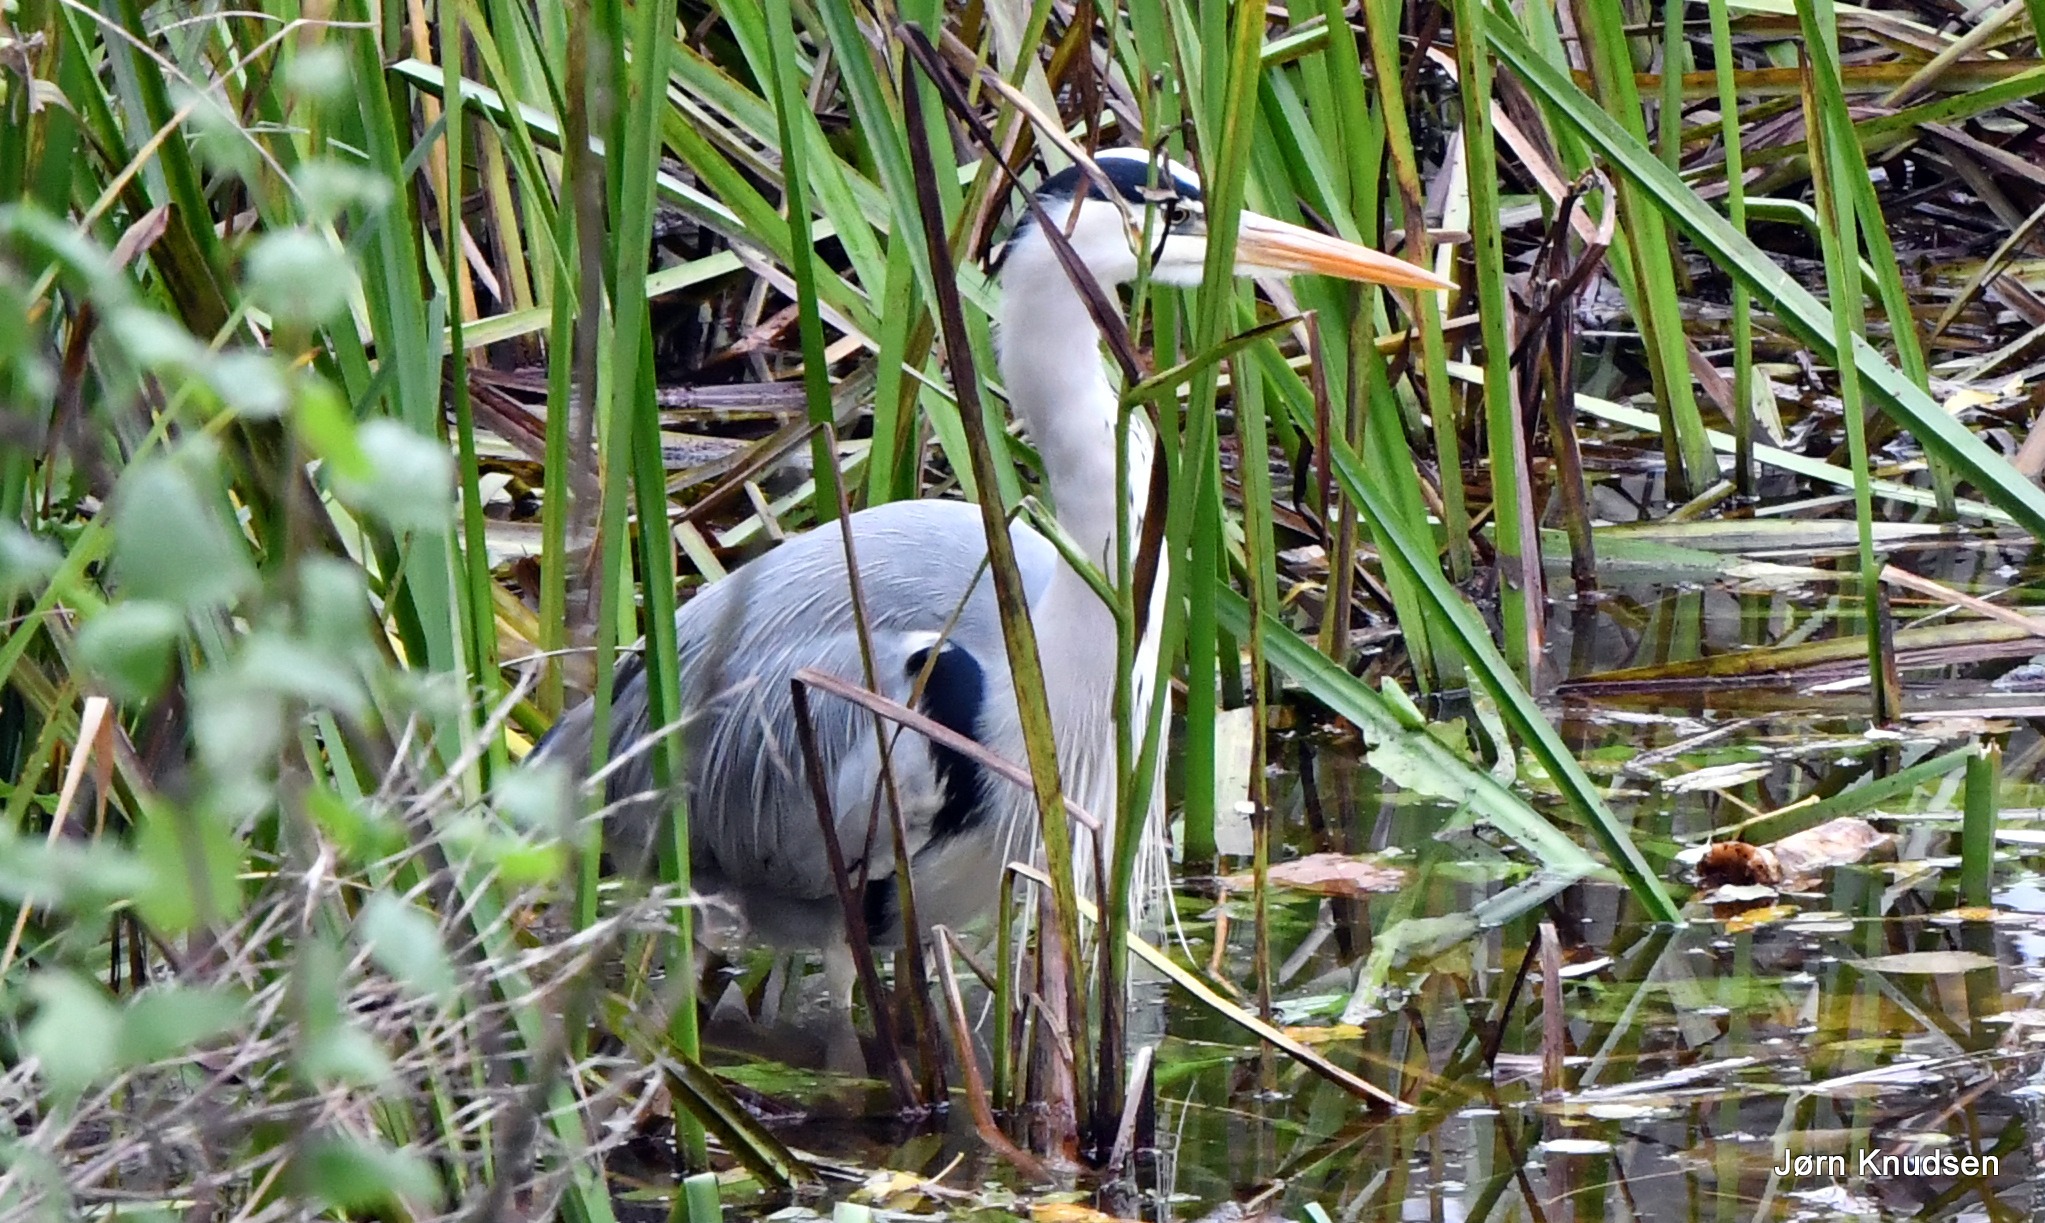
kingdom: Animalia
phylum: Chordata
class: Aves
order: Pelecaniformes
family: Ardeidae
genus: Ardea
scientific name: Ardea cinerea
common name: Fiskehejre
